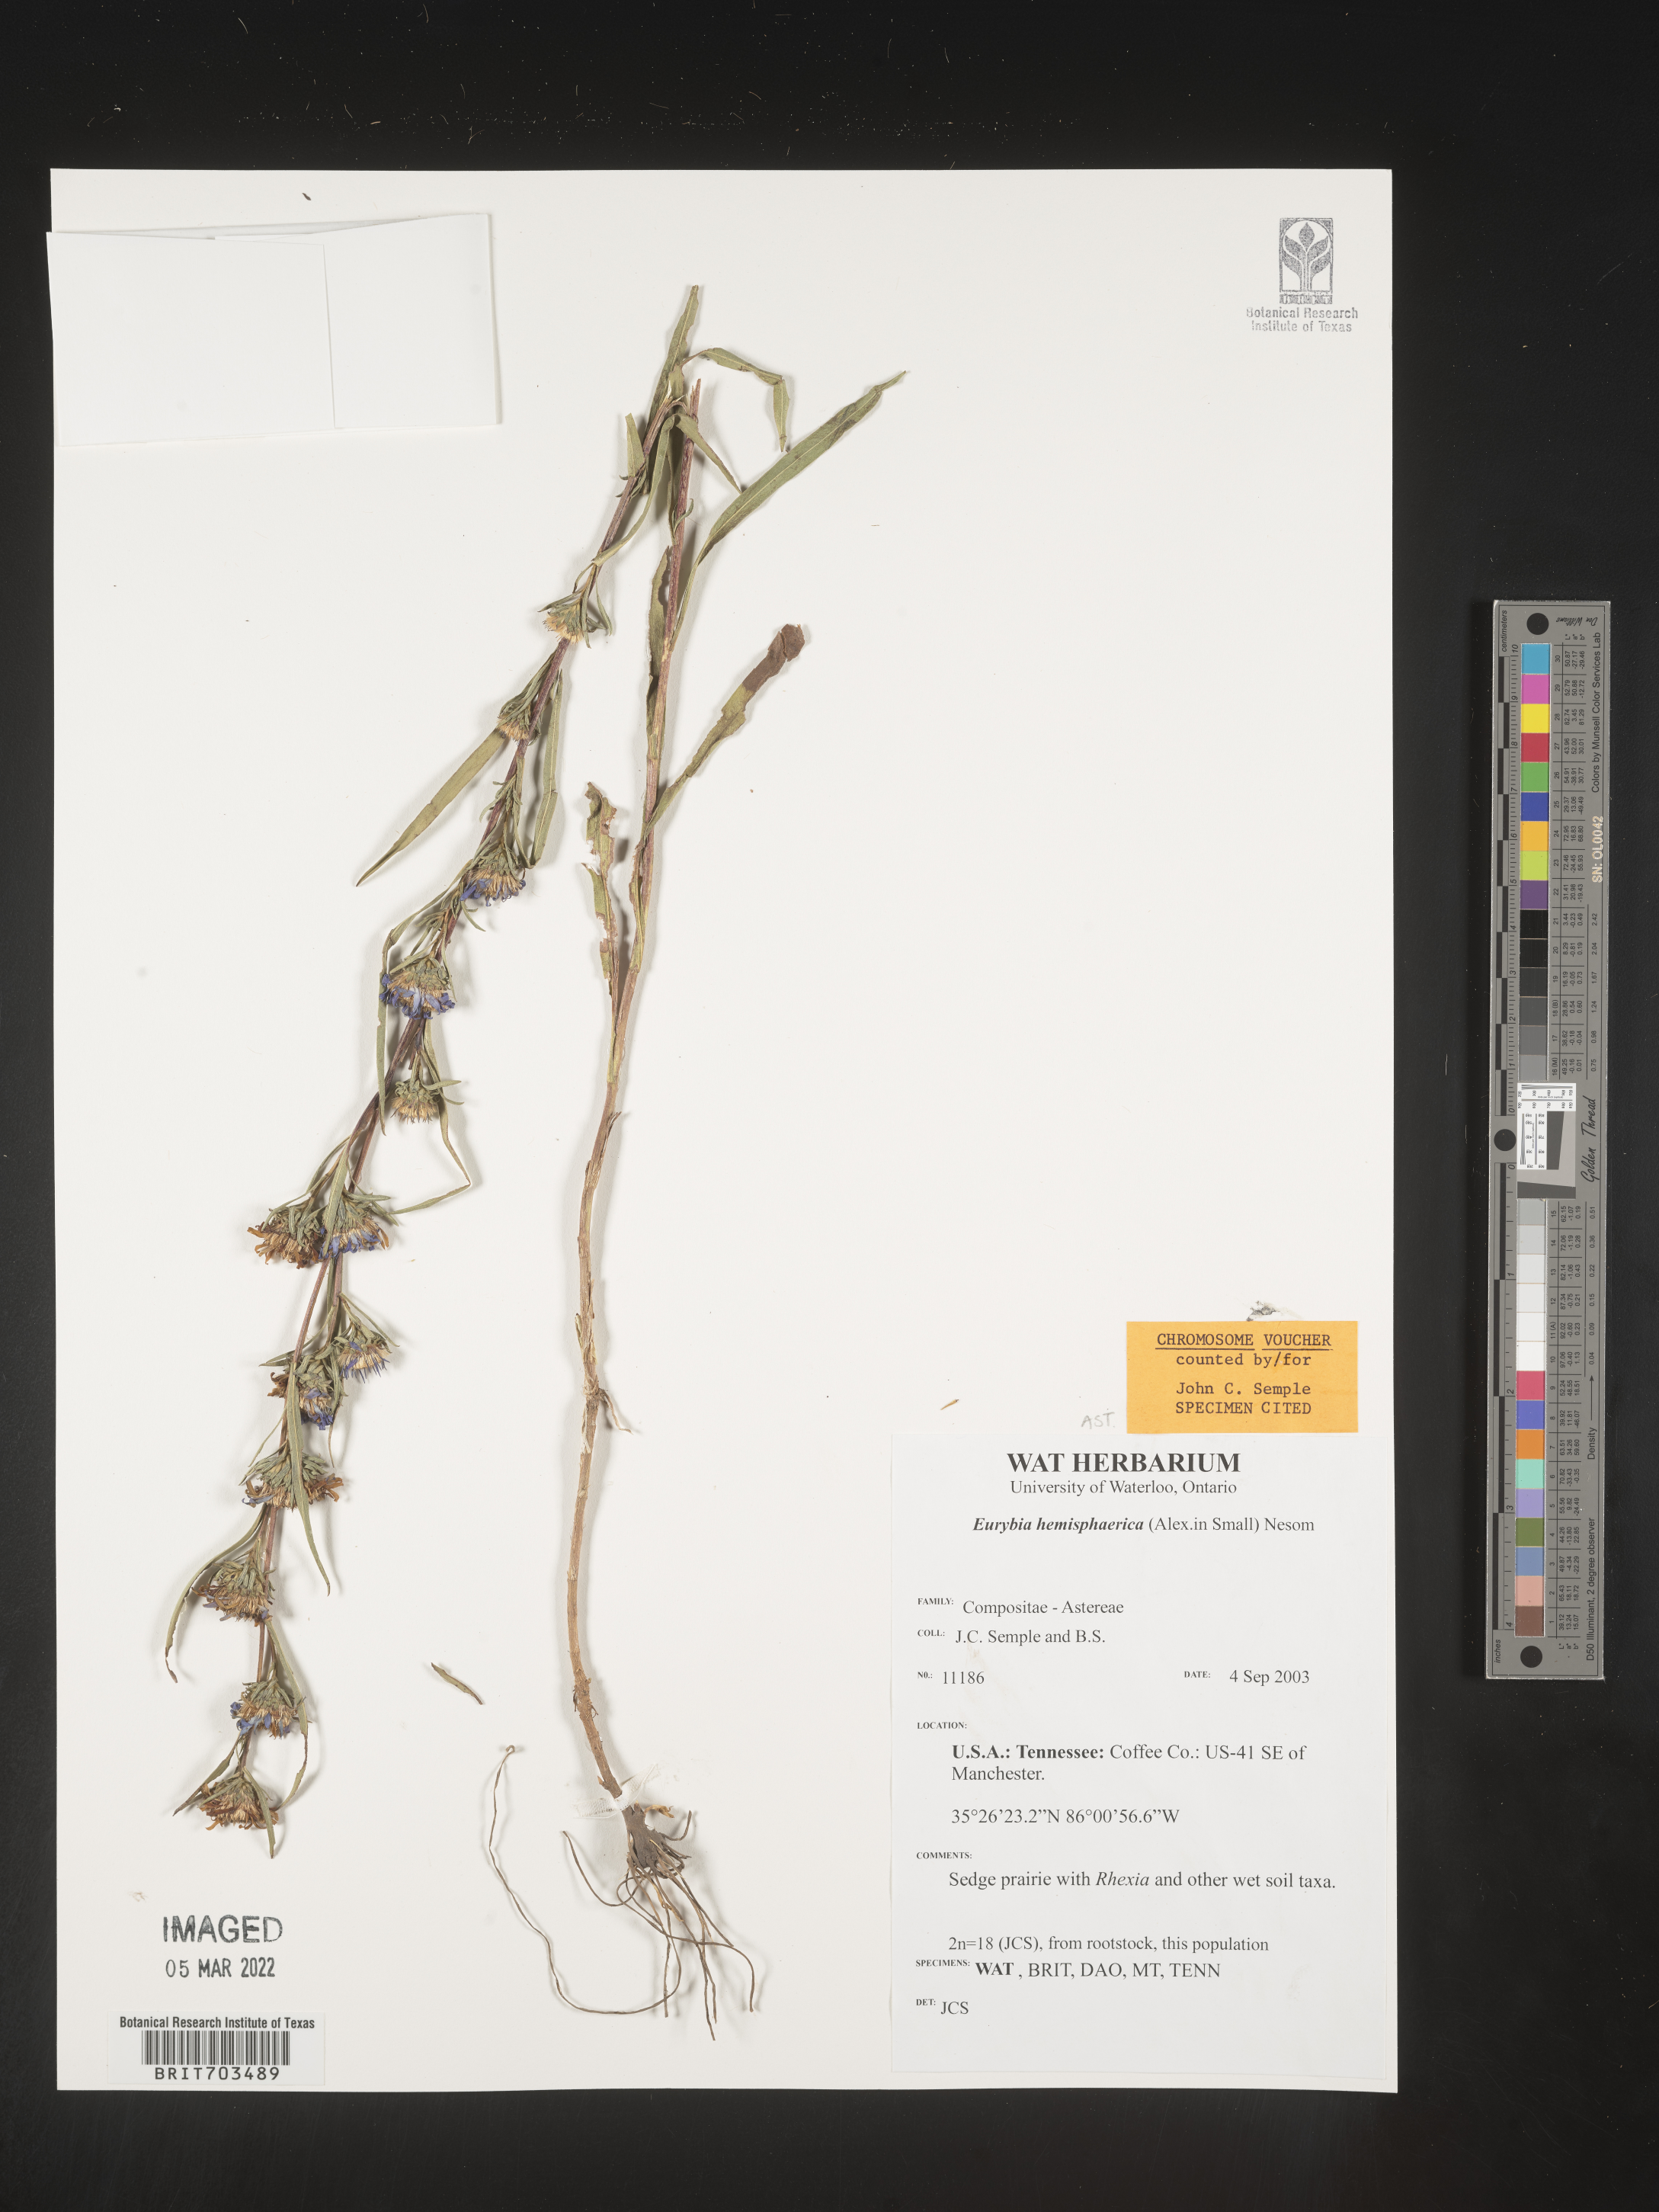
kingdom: Plantae
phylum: Tracheophyta
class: Magnoliopsida
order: Asterales
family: Asteraceae
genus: Eurybia
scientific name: Eurybia hemispherica
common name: Showy aster
